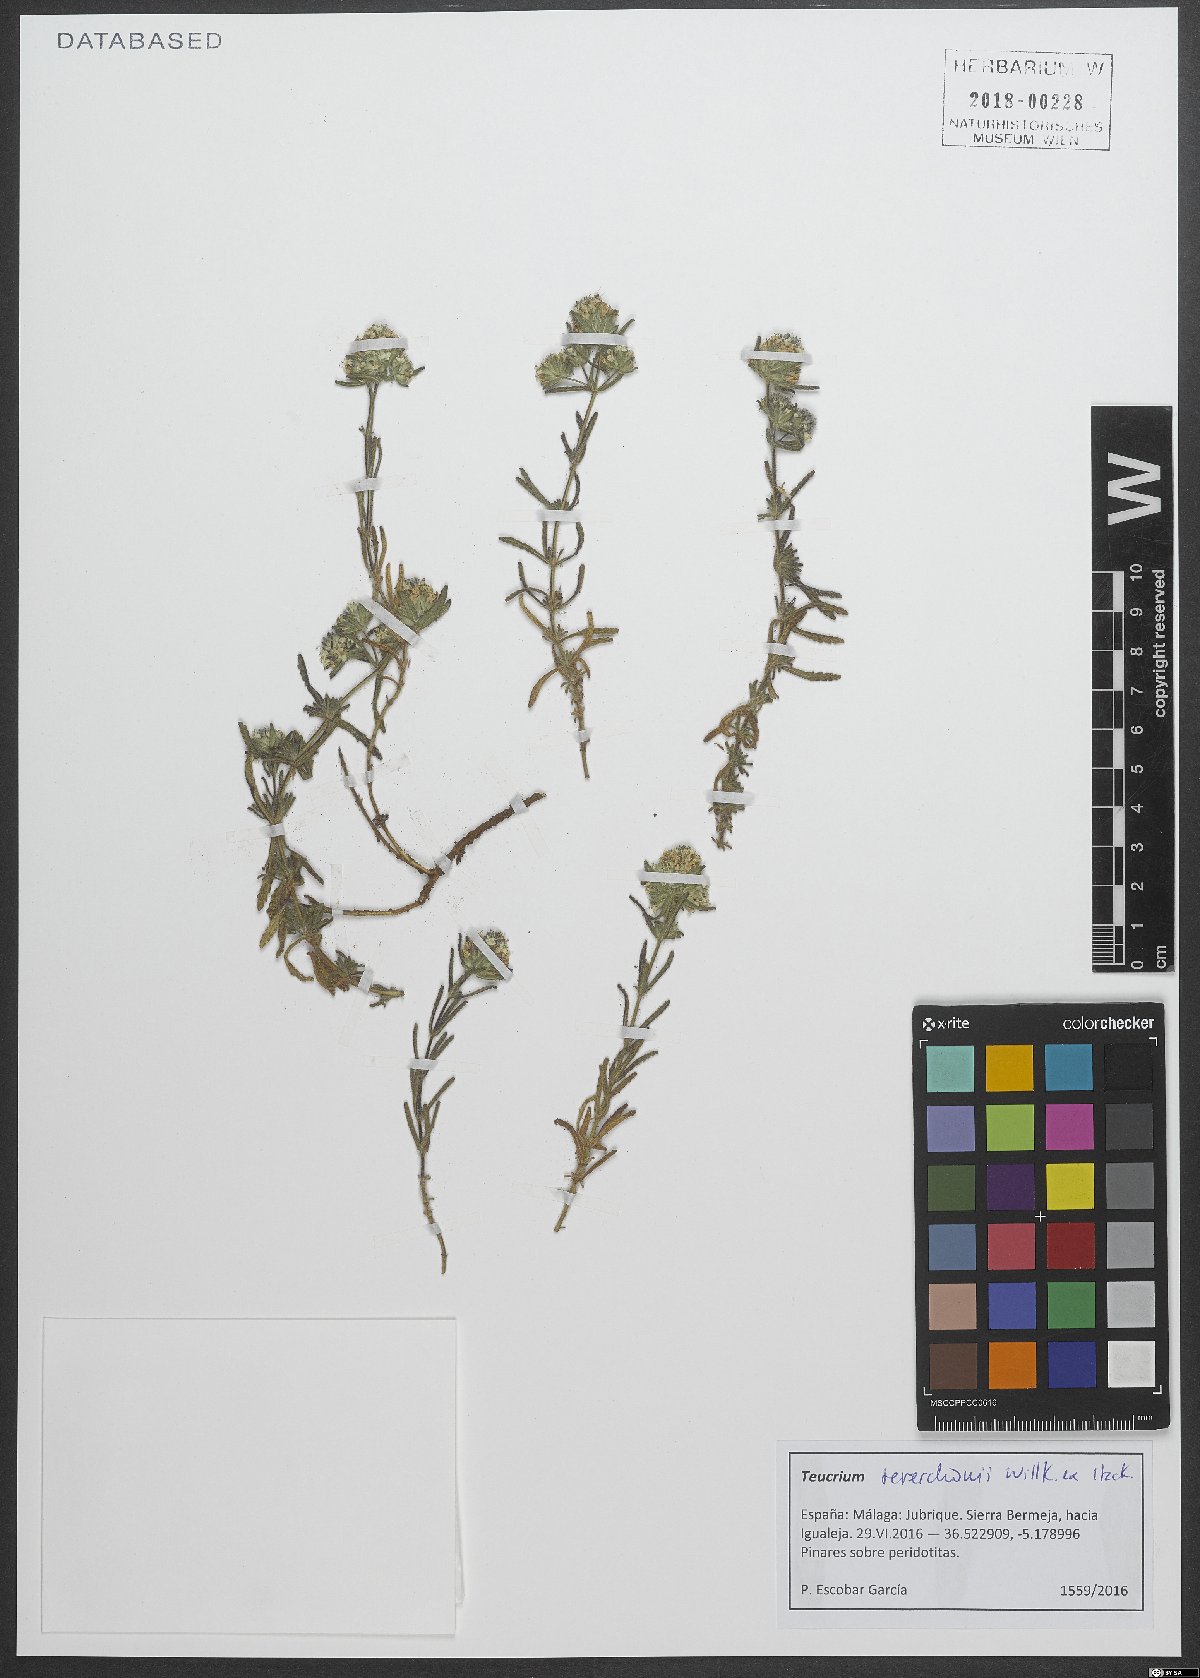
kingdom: Plantae
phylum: Tracheophyta
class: Magnoliopsida
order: Lamiales
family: Lamiaceae
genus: Teucrium
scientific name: Teucrium chlorocephalum
